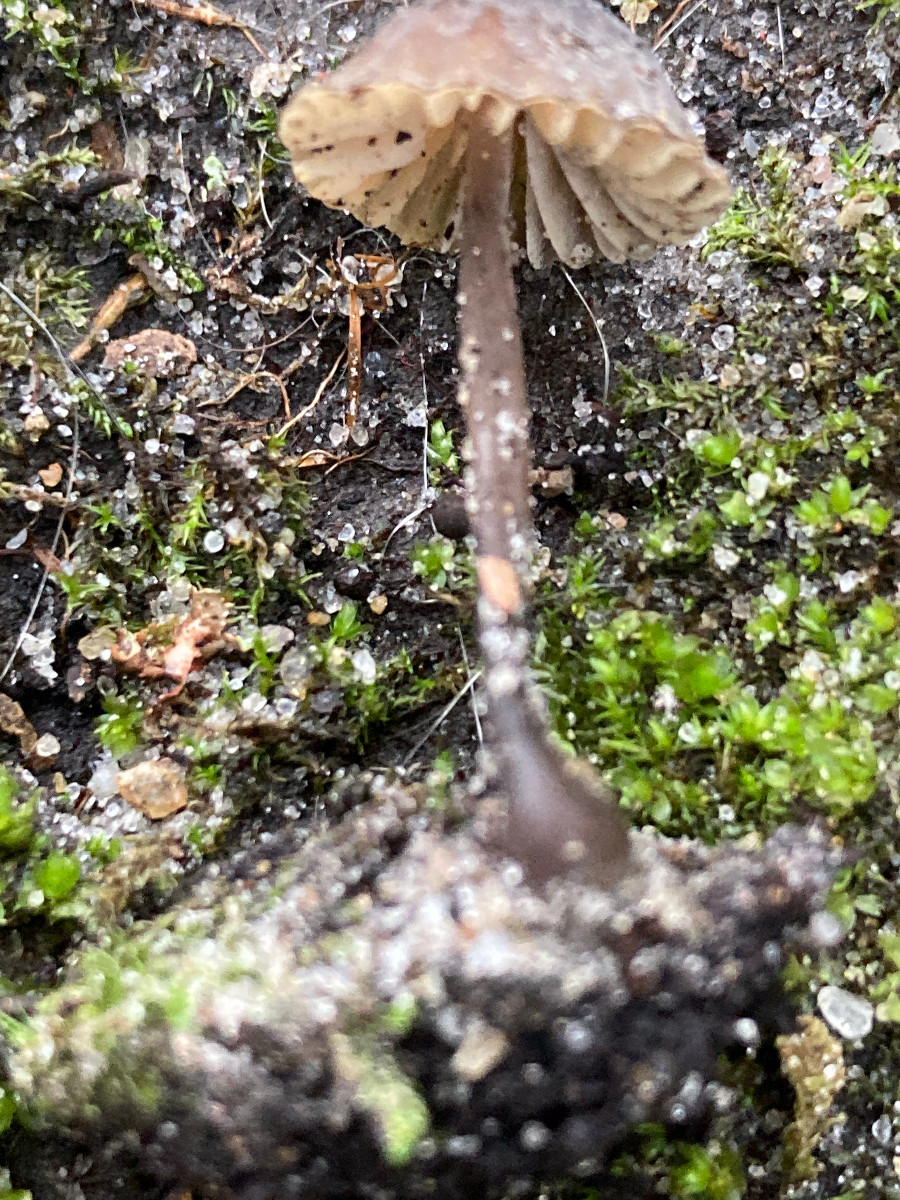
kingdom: Fungi
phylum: Basidiomycota
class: Agaricomycetes
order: Agaricales
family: Mycenaceae
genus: Mycena
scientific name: Mycena
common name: huesvamp
